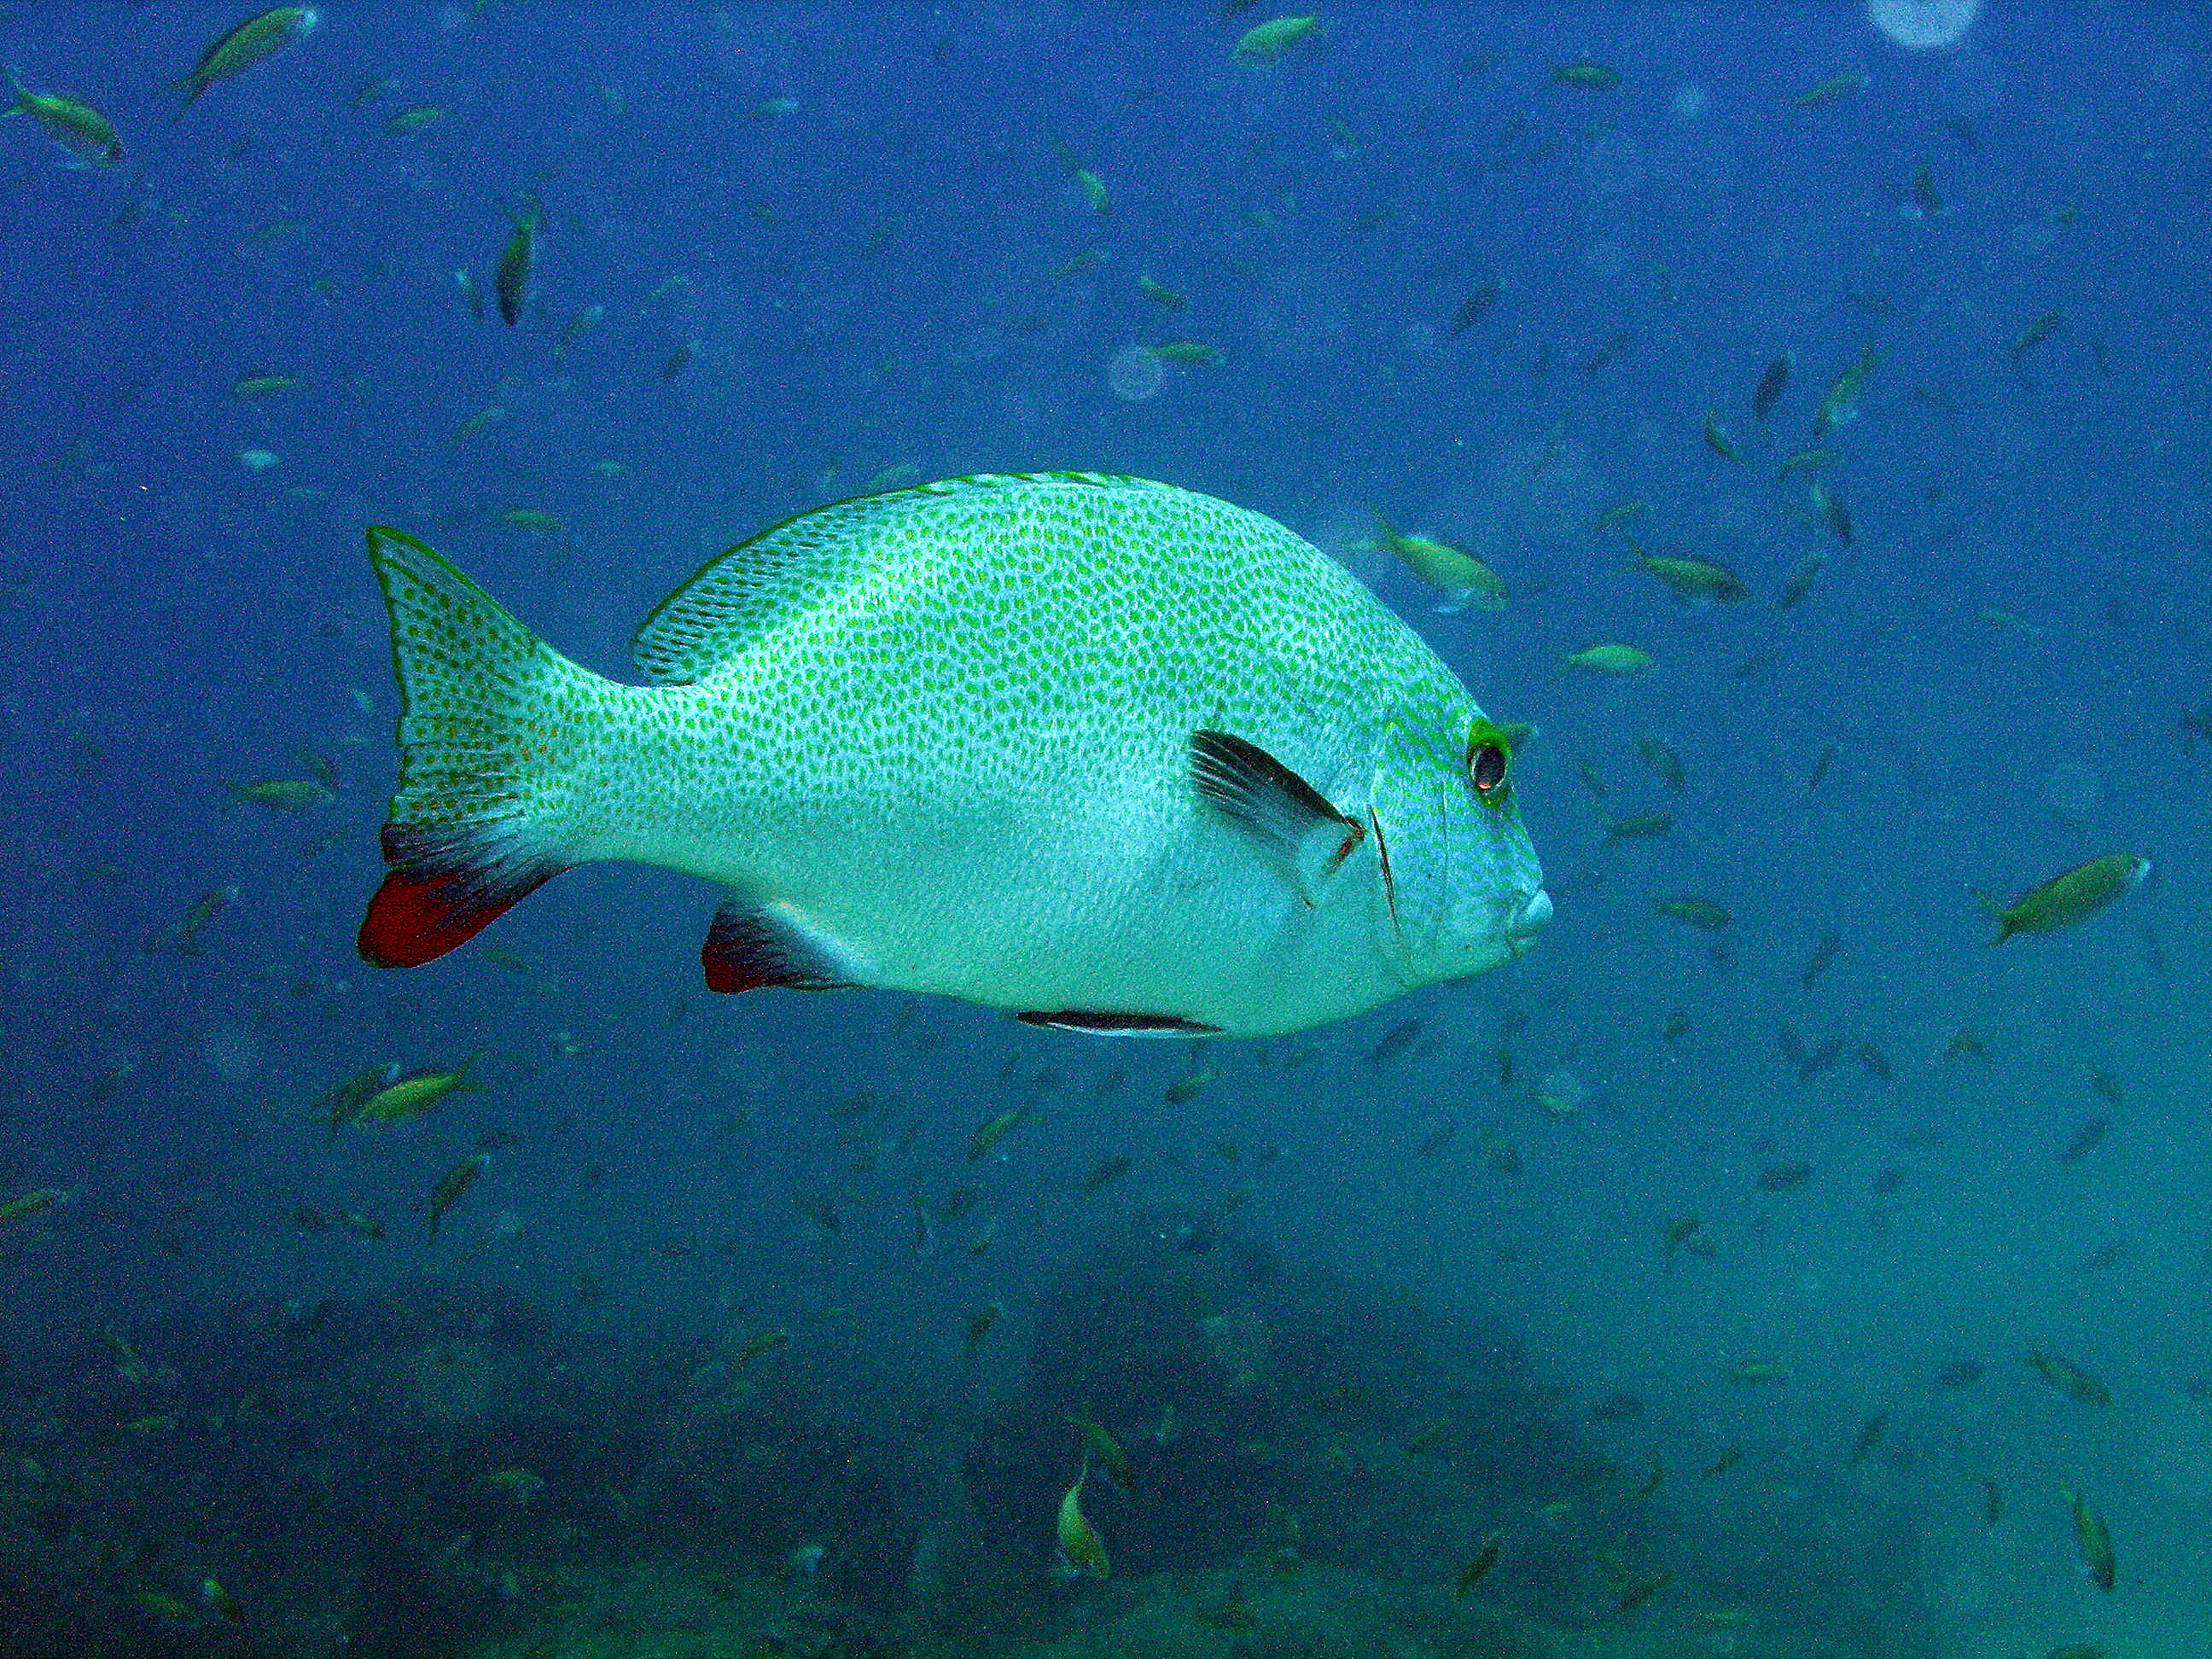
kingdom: Animalia
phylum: Chordata
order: Perciformes
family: Haemulidae
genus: Plectorhinchus
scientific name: Plectorhinchus flavomaculatus
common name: Netted sweetlips
